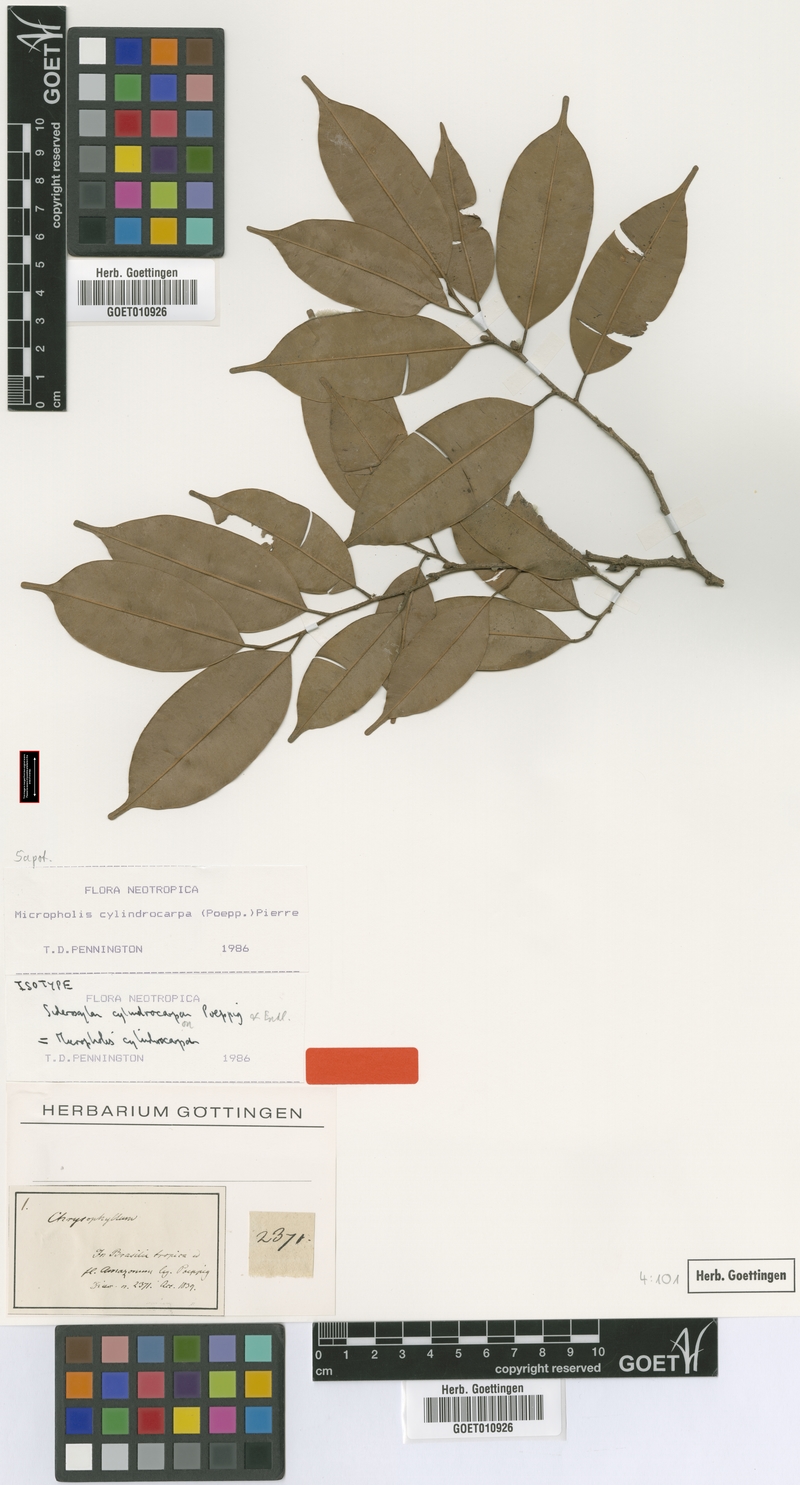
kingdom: Plantae
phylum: Tracheophyta
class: Magnoliopsida
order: Ericales
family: Sapotaceae
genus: Micropholis
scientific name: Micropholis cylindrocarpa
